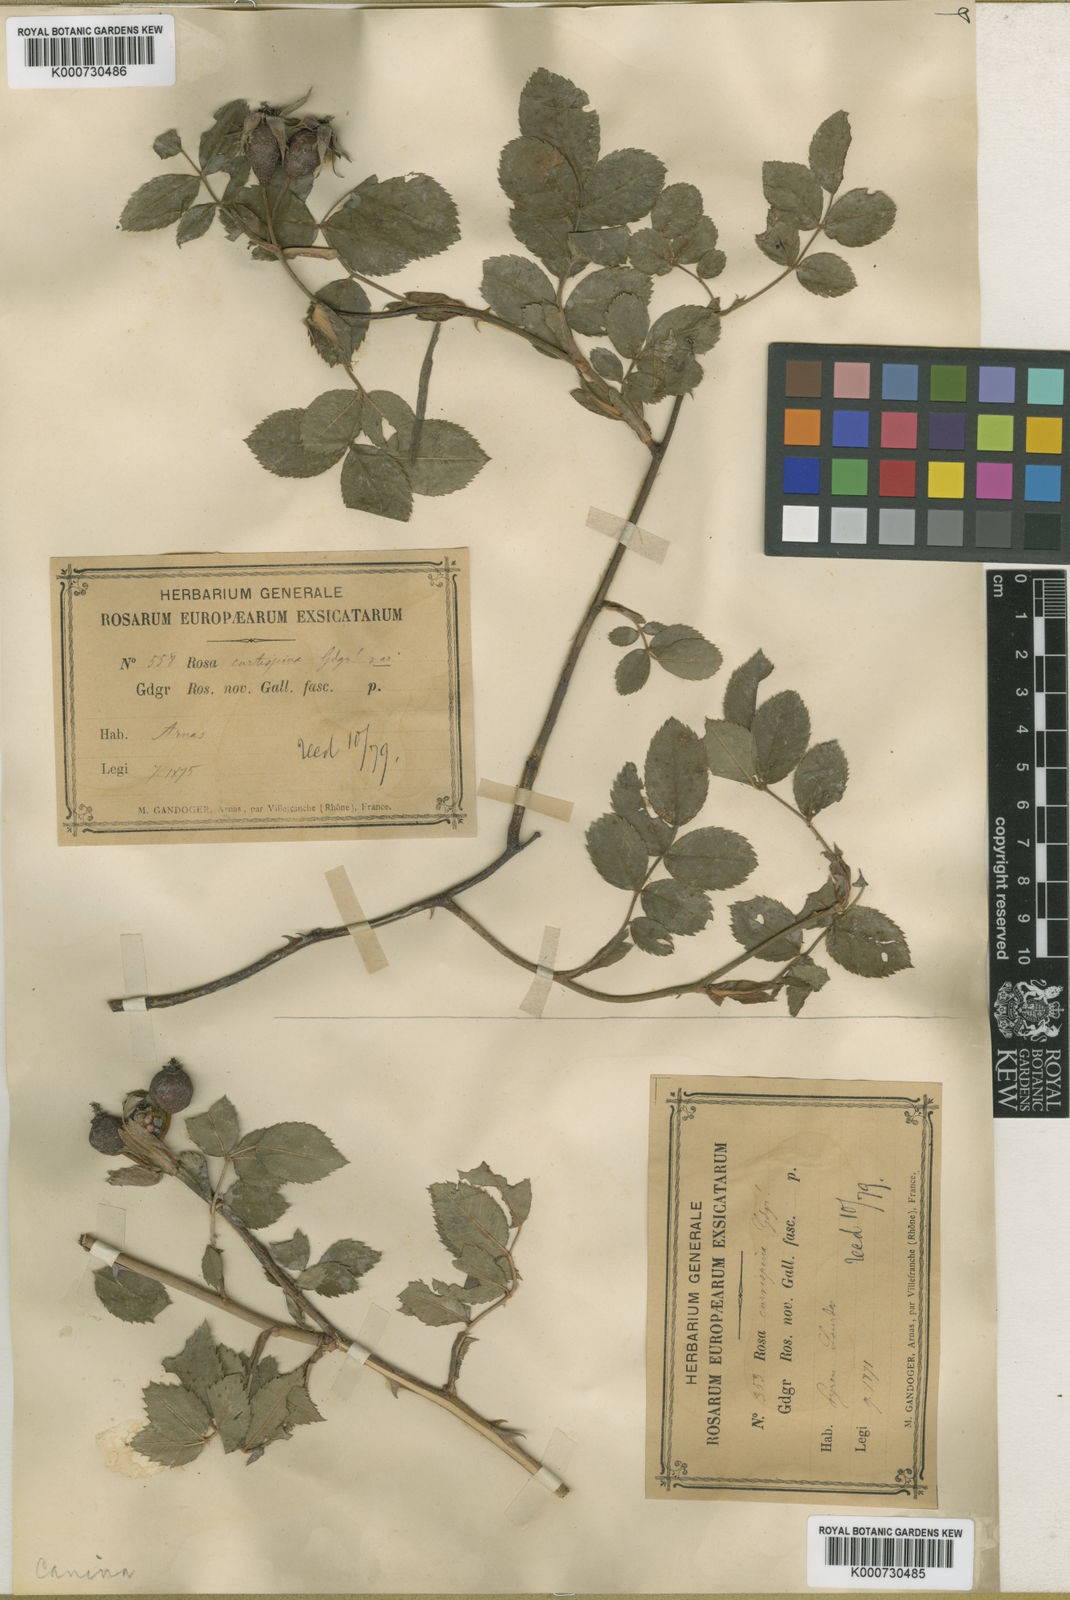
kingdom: Plantae
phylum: Tracheophyta
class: Magnoliopsida
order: Rosales
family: Rosaceae
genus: Rosa
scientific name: Rosa canina
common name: Dog rose
